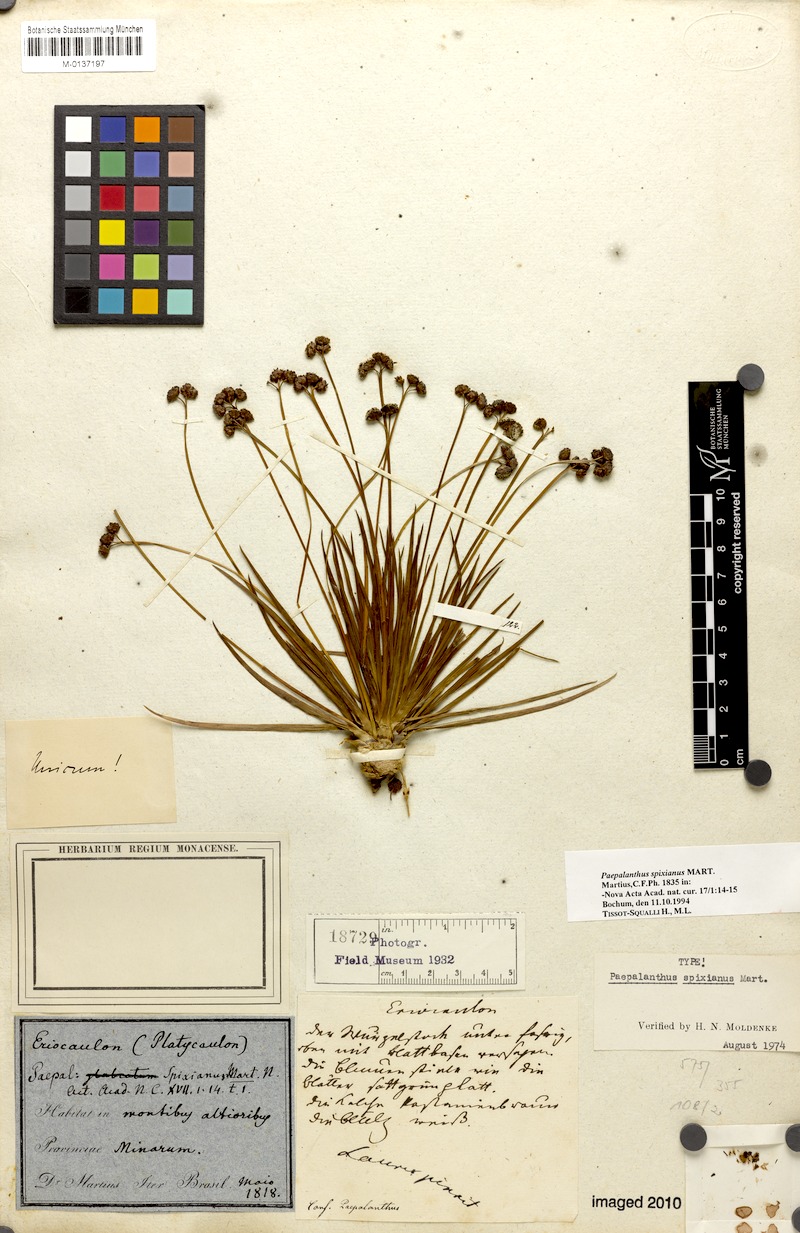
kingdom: Plantae
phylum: Tracheophyta
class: Liliopsida
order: Poales
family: Eriocaulaceae
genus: Paepalanthus
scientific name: Paepalanthus spixianus
